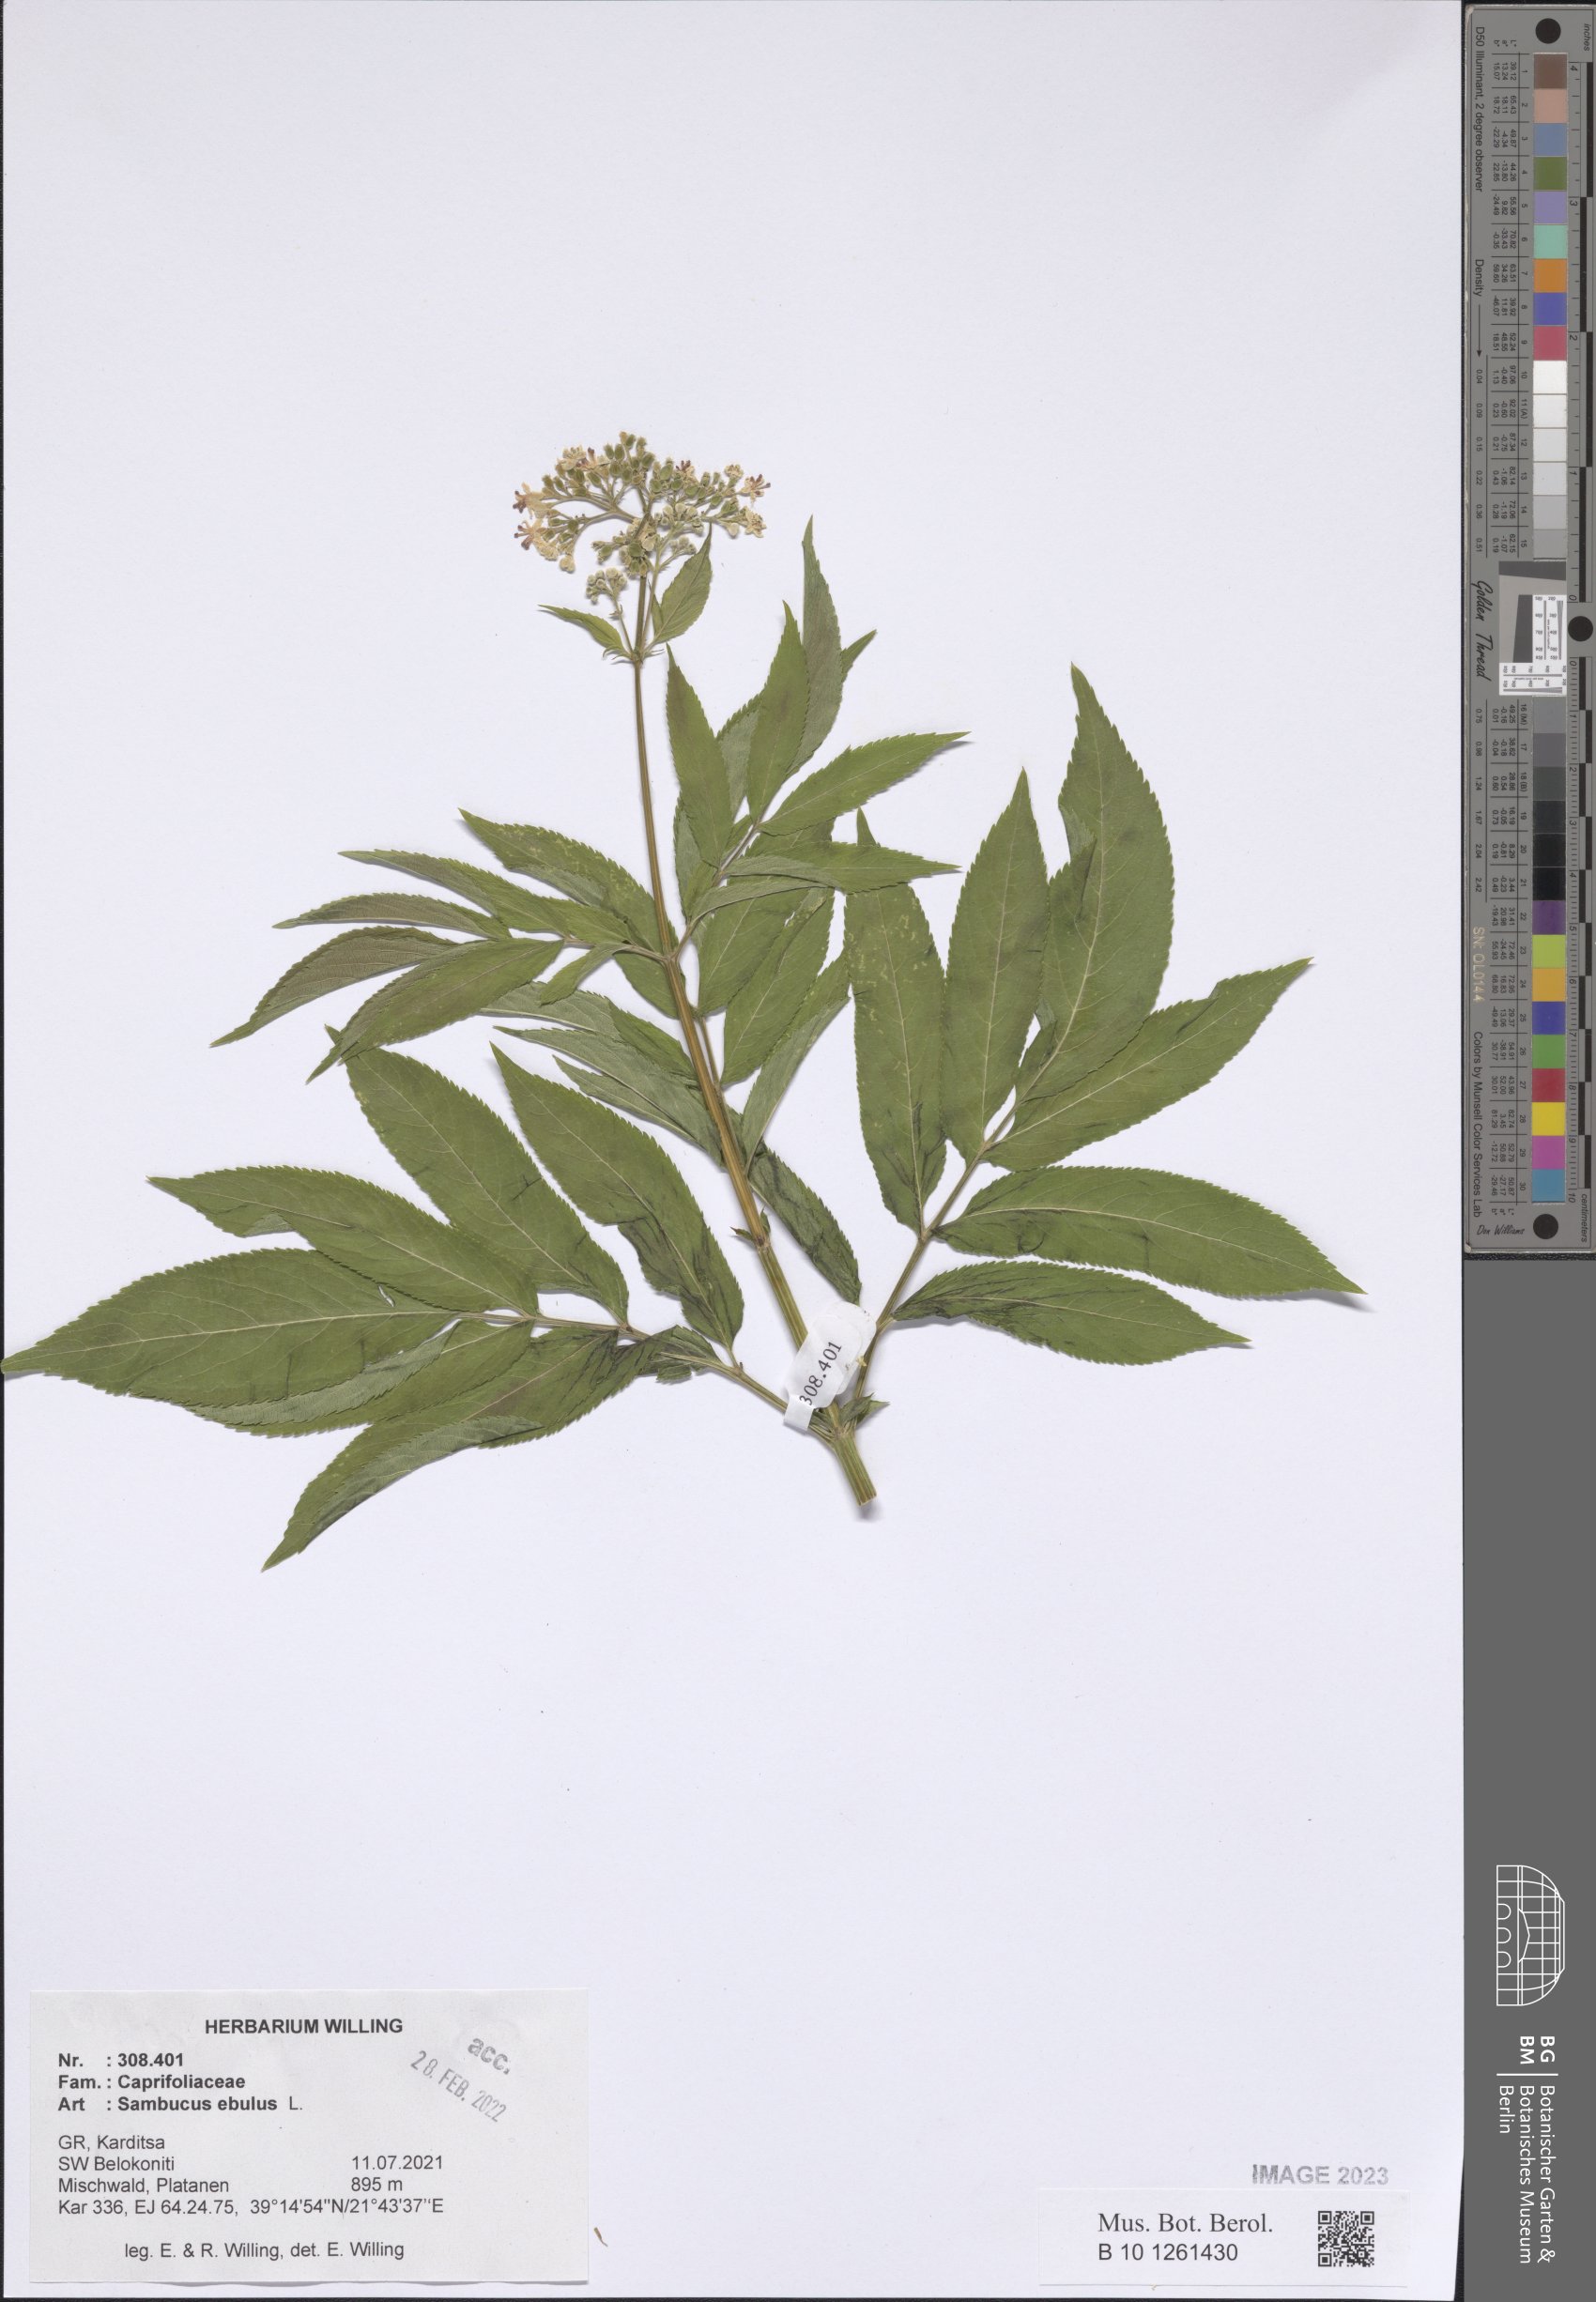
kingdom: Plantae
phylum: Tracheophyta
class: Magnoliopsida
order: Dipsacales
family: Viburnaceae
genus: Sambucus
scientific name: Sambucus ebulus
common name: Dwarf elder
